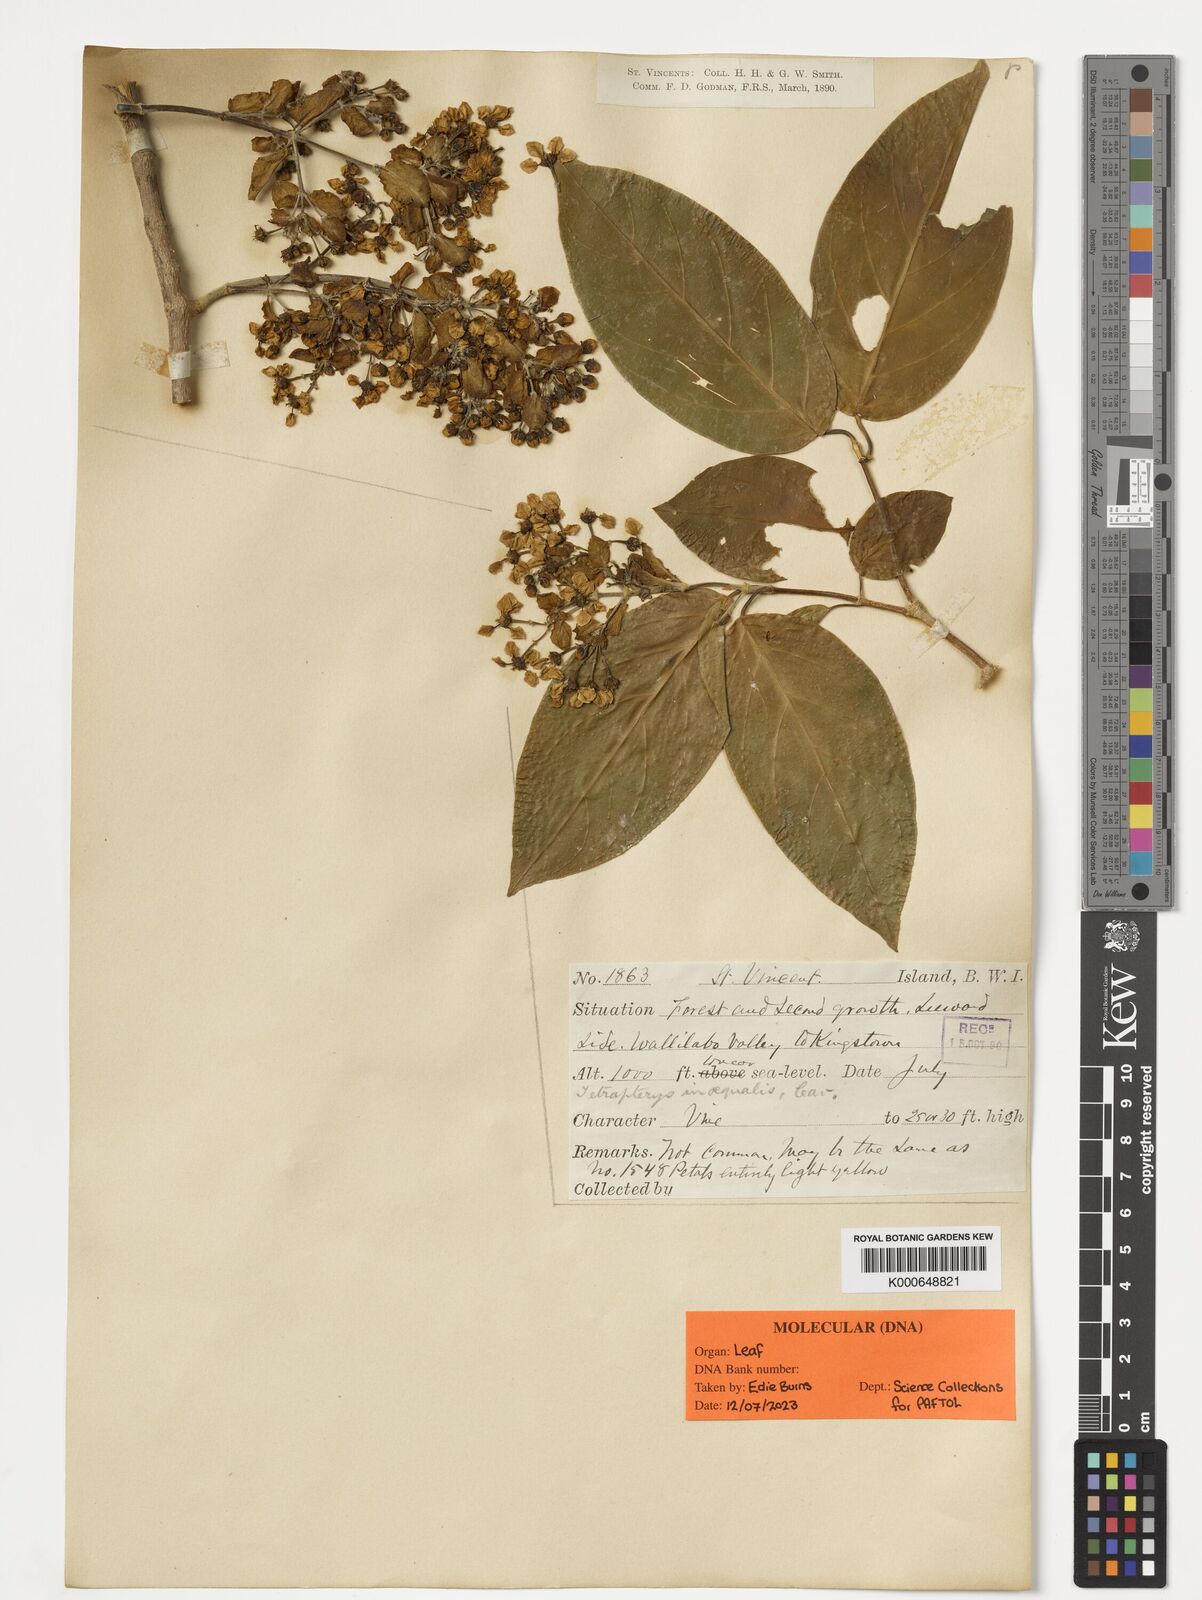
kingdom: Plantae
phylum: Tracheophyta
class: Magnoliopsida
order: Malpighiales
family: Malpighiaceae
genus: Tetrapterys
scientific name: Tetrapterys inaequalis
